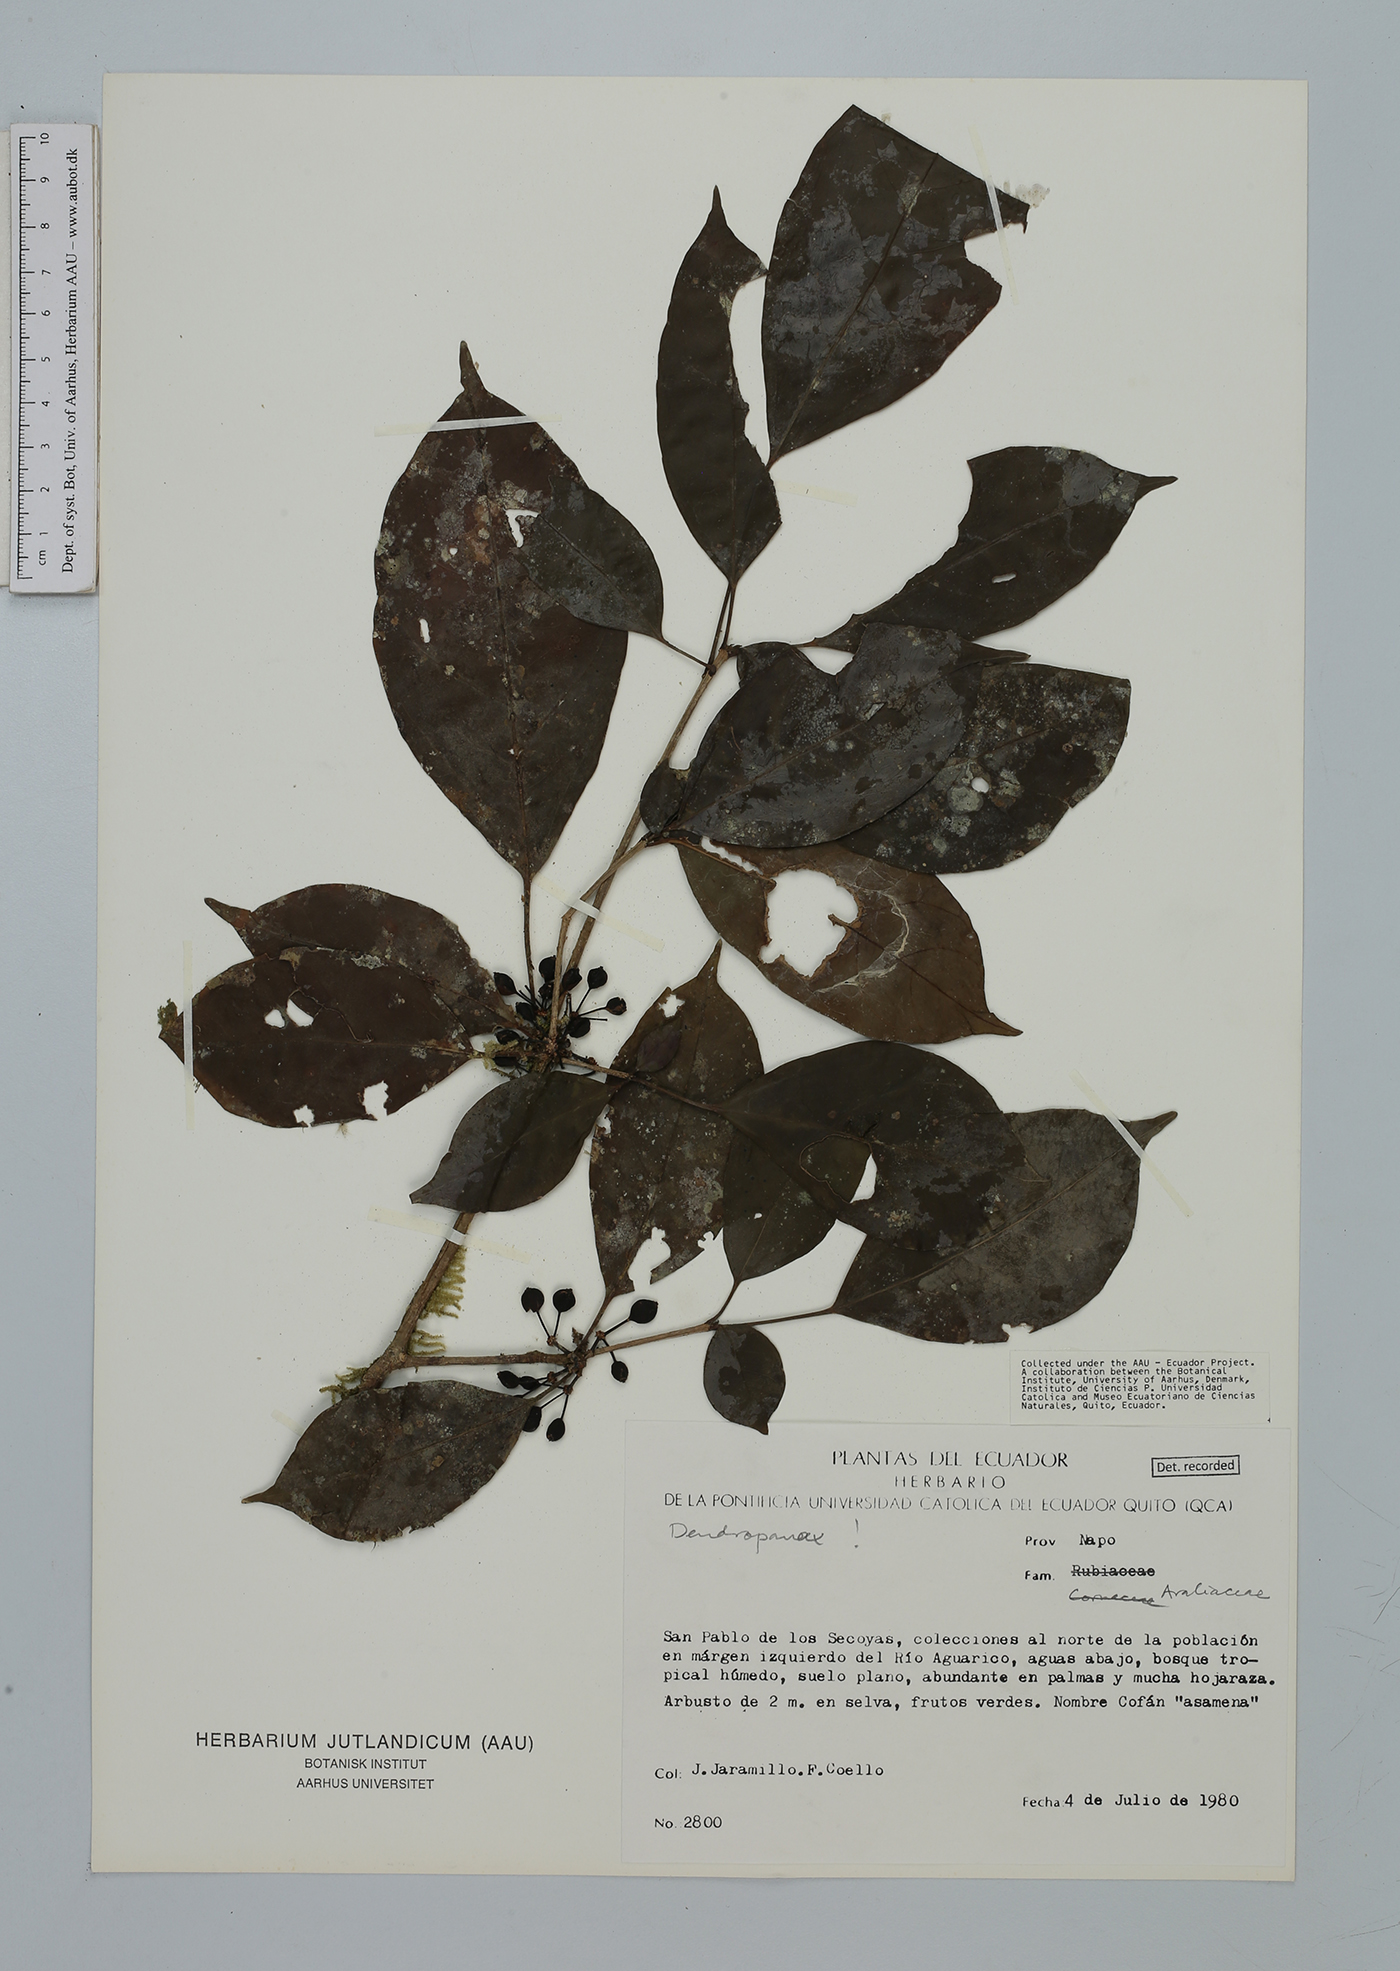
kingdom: Plantae
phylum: Tracheophyta
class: Magnoliopsida
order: Apiales
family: Araliaceae
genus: Dendropanax
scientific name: Dendropanax
